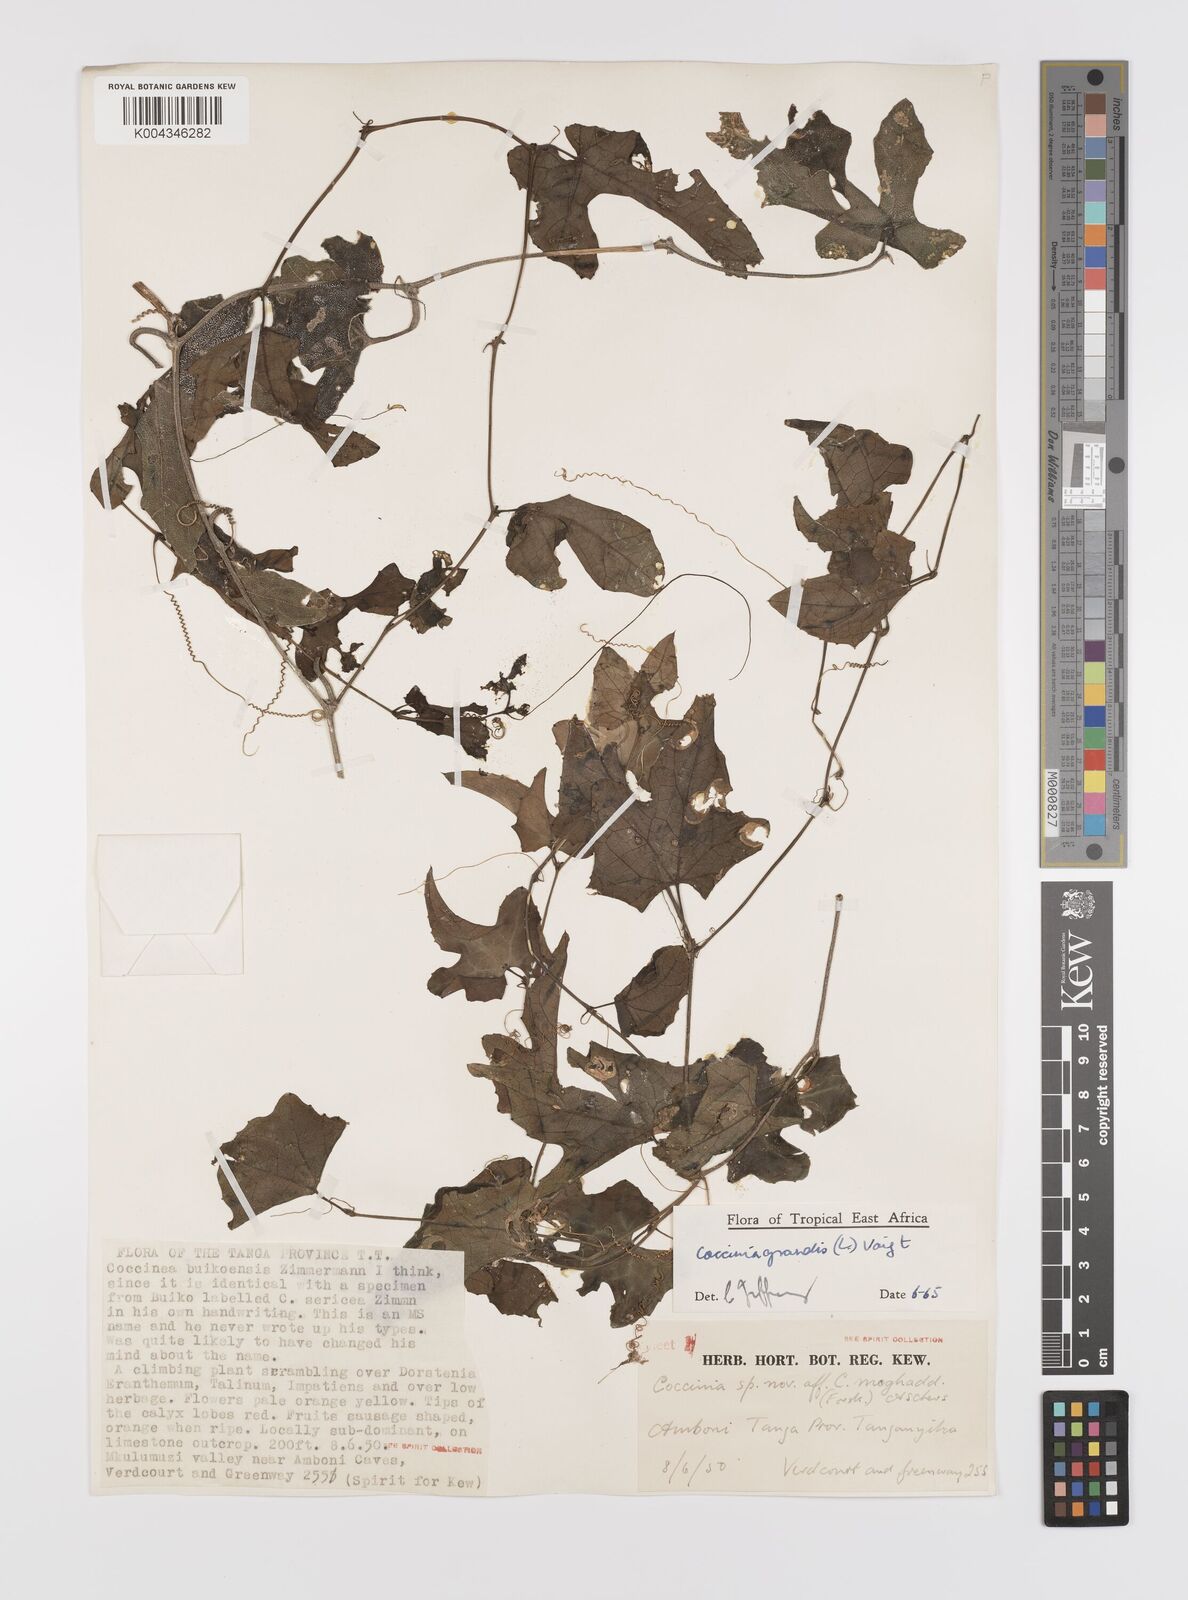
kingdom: Plantae
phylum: Tracheophyta
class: Magnoliopsida
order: Cucurbitales
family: Cucurbitaceae
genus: Coccinia
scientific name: Coccinia grandis
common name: Ivy gourd
